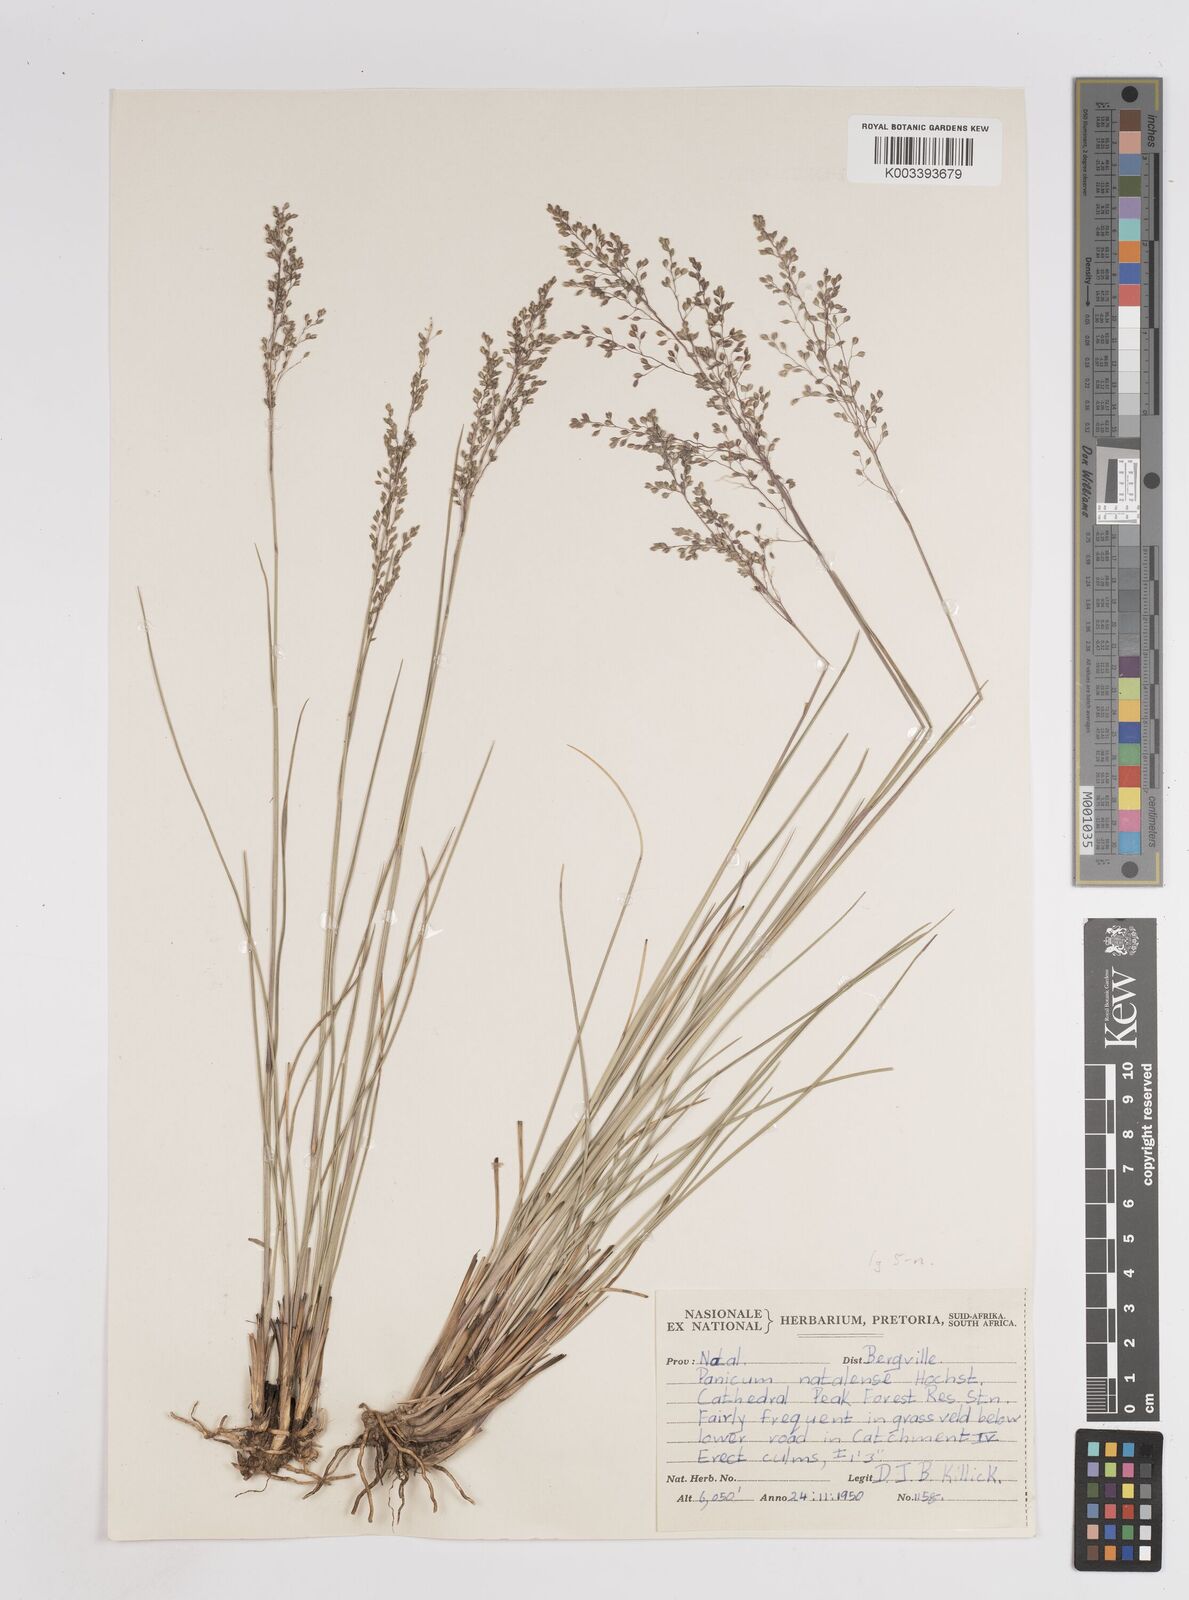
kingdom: Plantae
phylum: Tracheophyta
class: Liliopsida
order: Poales
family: Poaceae
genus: Trichanthecium
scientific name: Trichanthecium natalense
